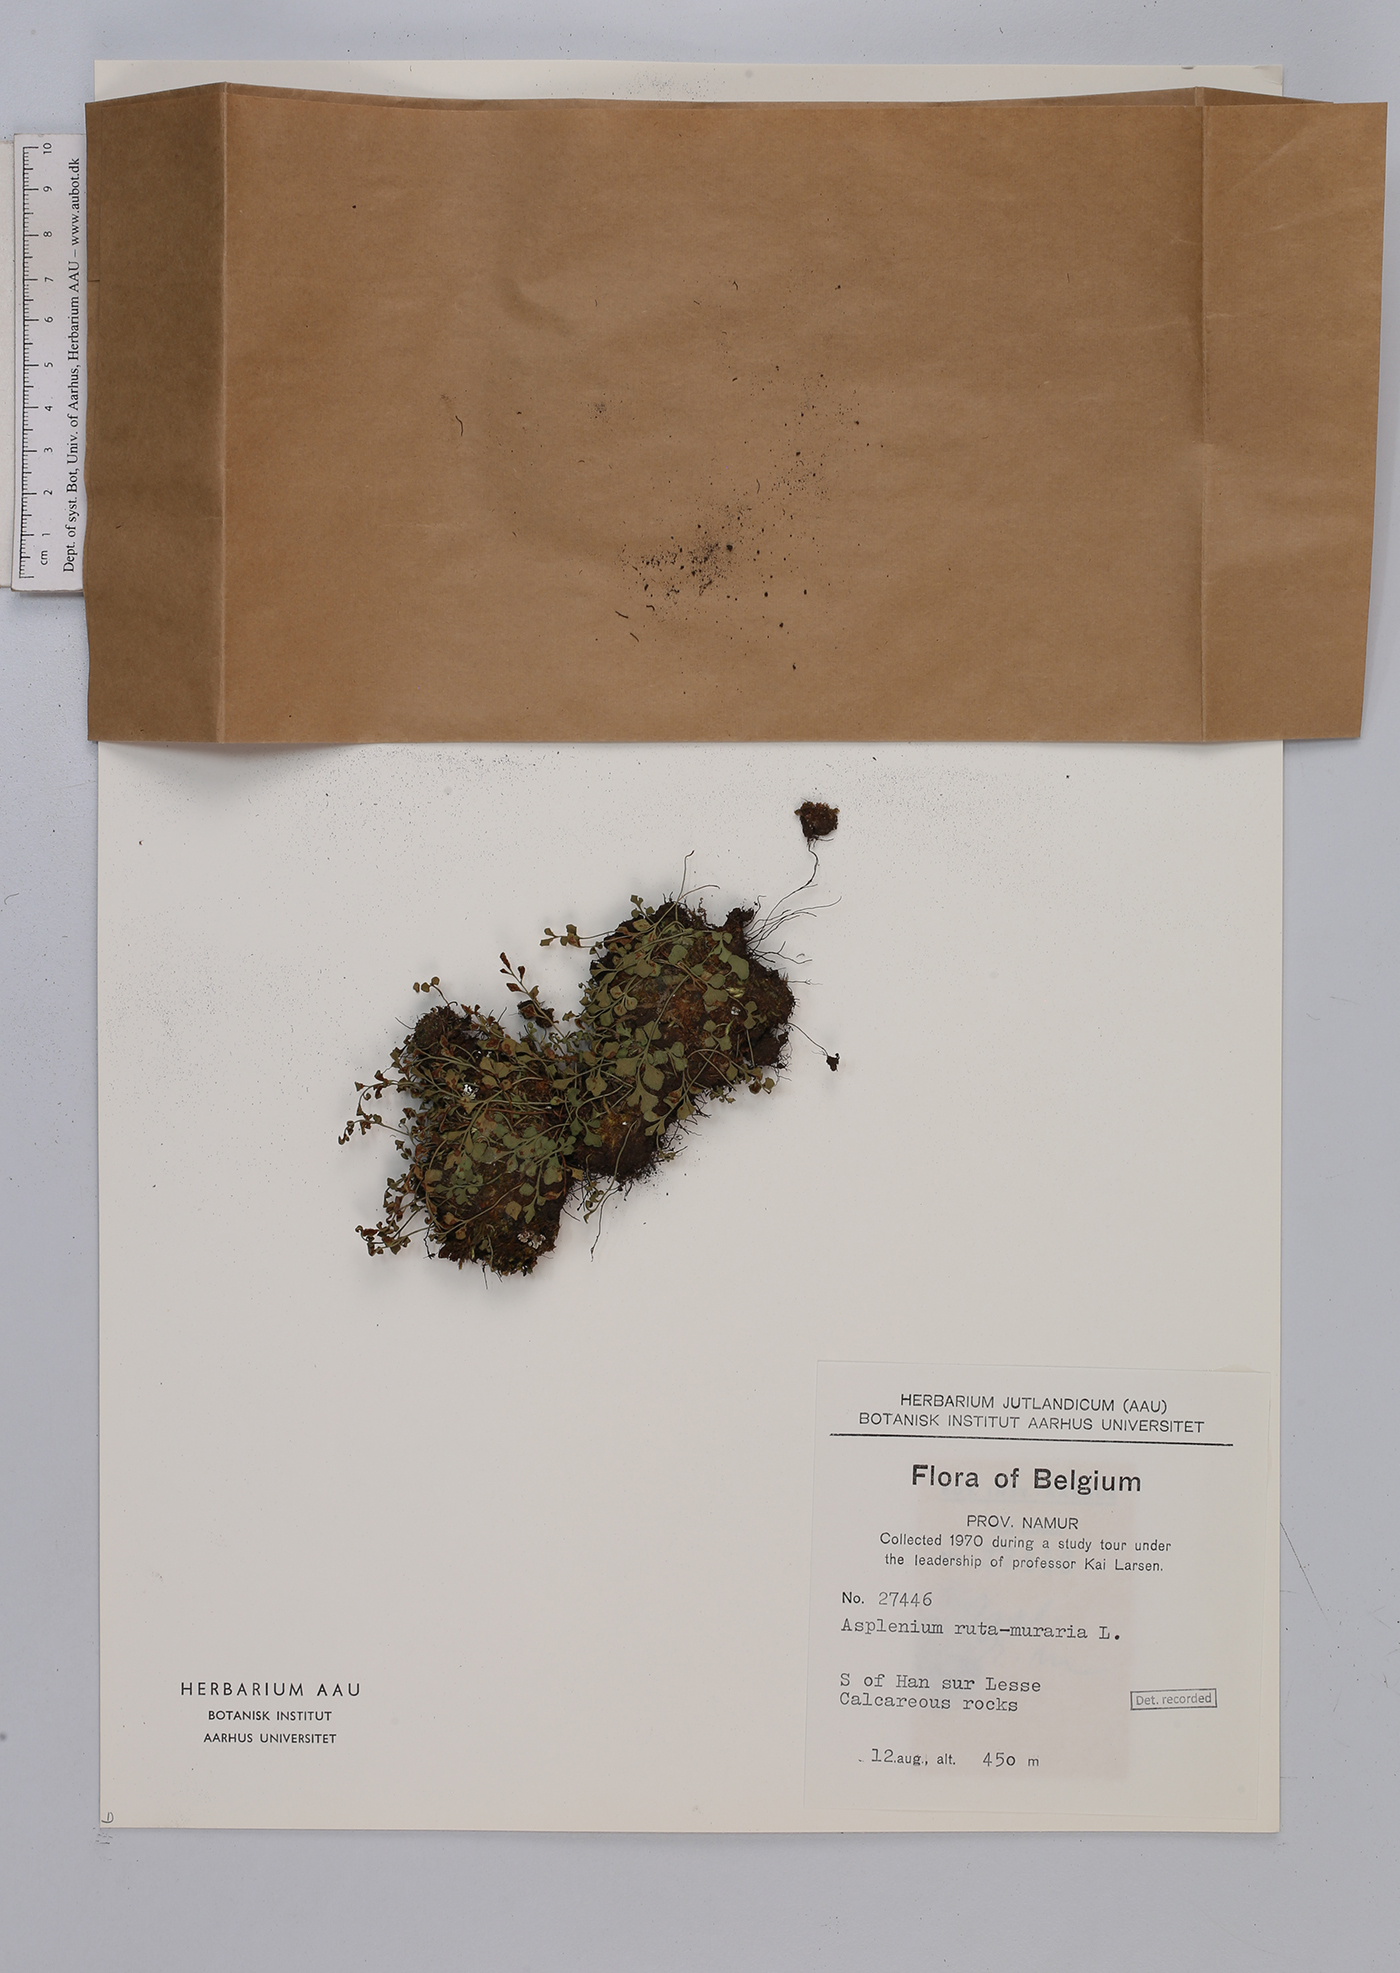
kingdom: Plantae
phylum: Tracheophyta
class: Polypodiopsida
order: Polypodiales
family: Aspleniaceae
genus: Asplenium
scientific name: Asplenium ruta-muraria
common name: Wall-rue
